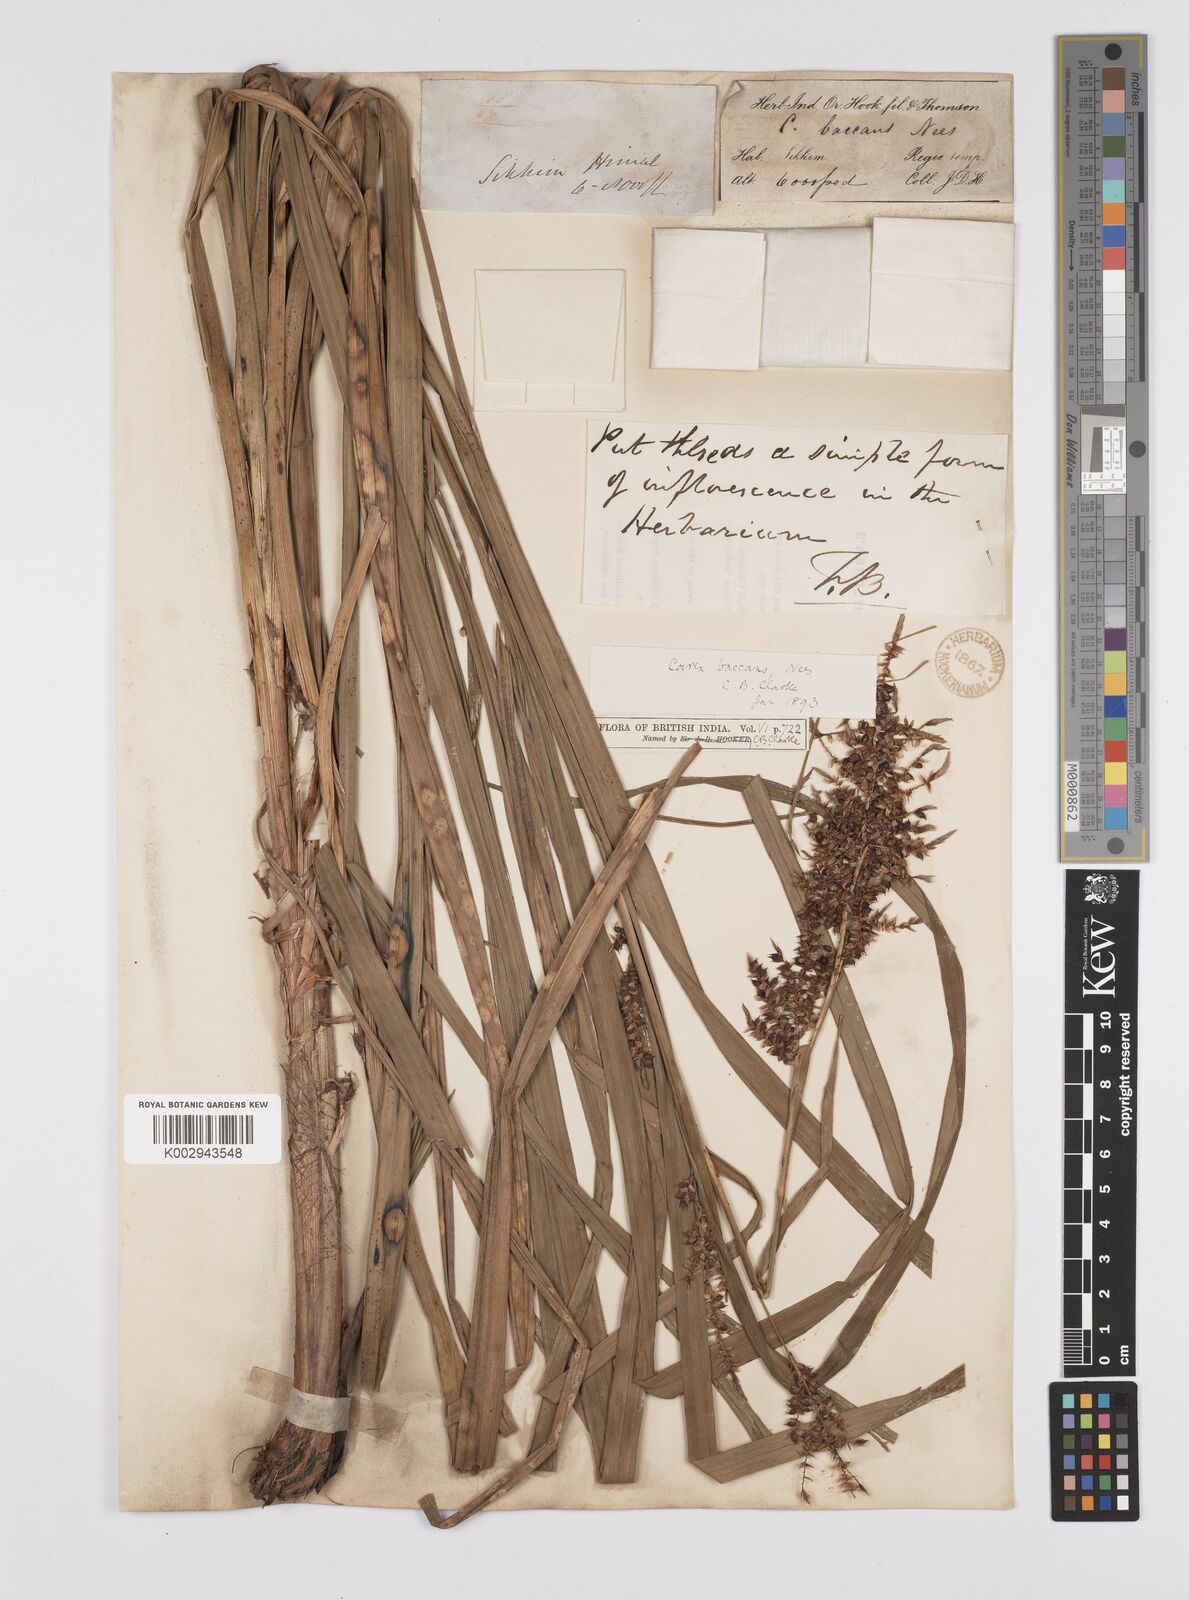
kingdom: Plantae
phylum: Tracheophyta
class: Liliopsida
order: Poales
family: Cyperaceae
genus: Carex
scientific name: Carex baccans
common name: Crimson seeded sedge
